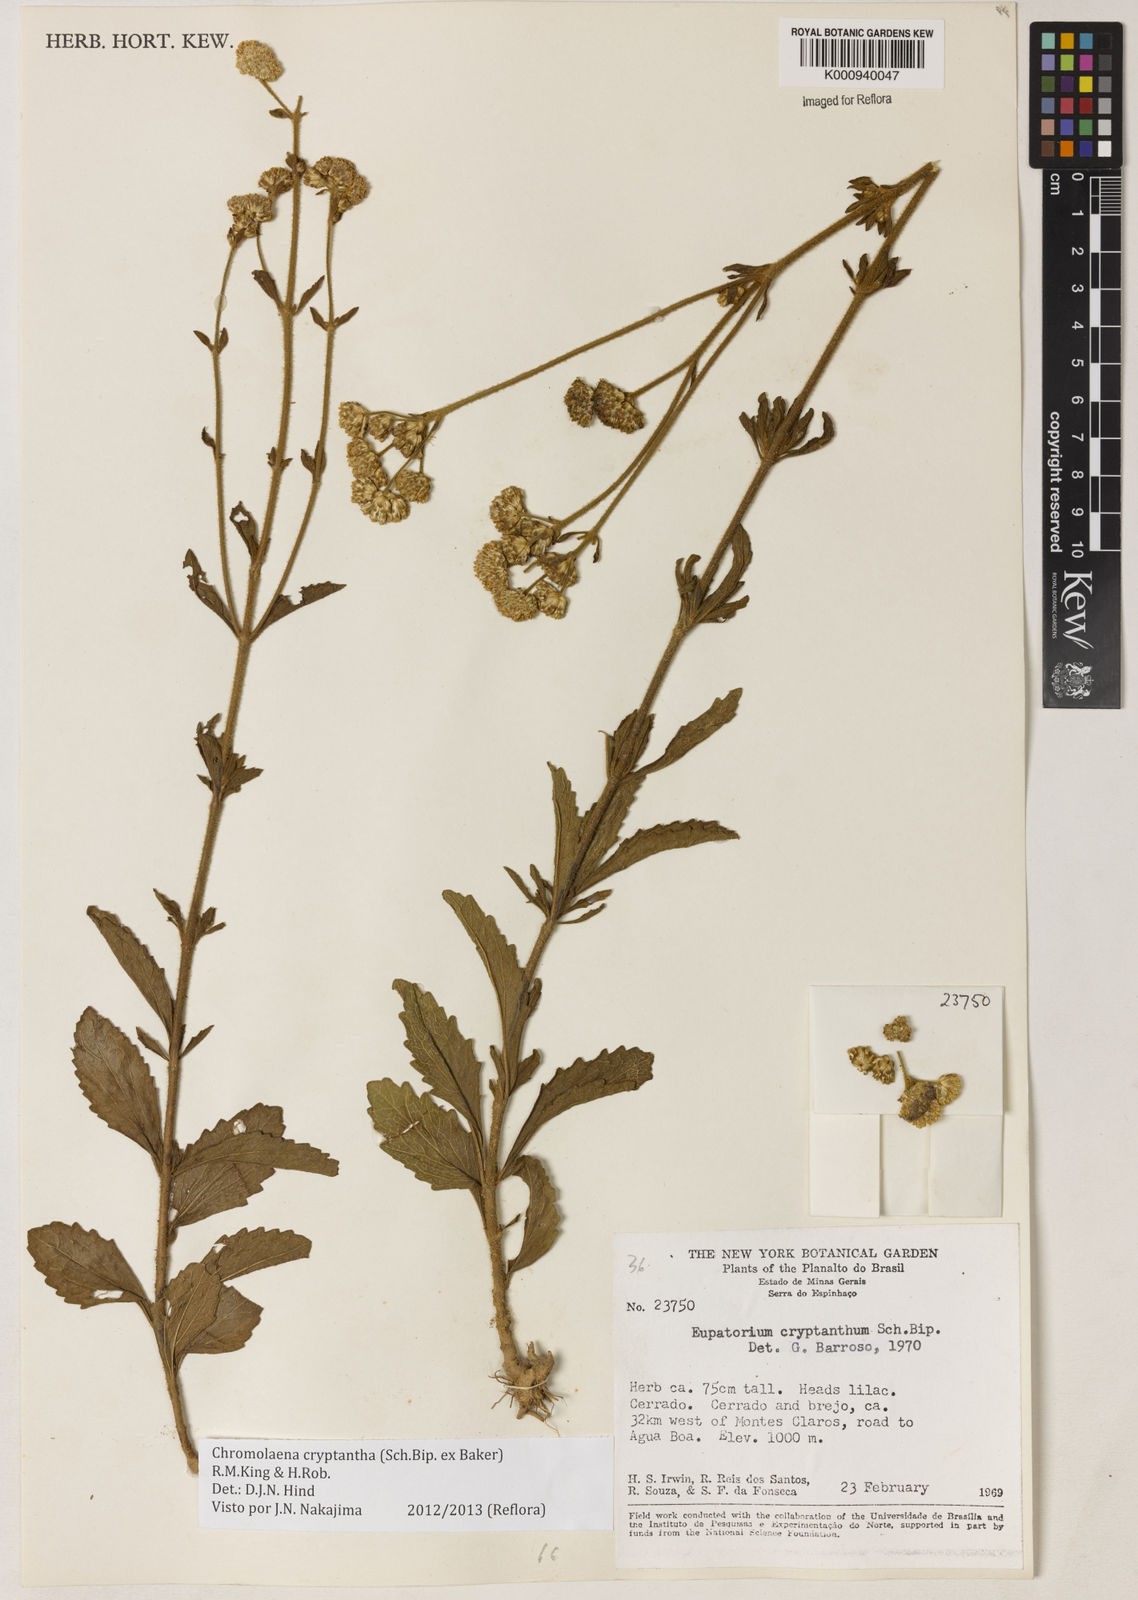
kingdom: Plantae
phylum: Tracheophyta
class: Magnoliopsida
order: Asterales
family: Asteraceae
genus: Chromolaena
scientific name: Chromolaena cryptantha
